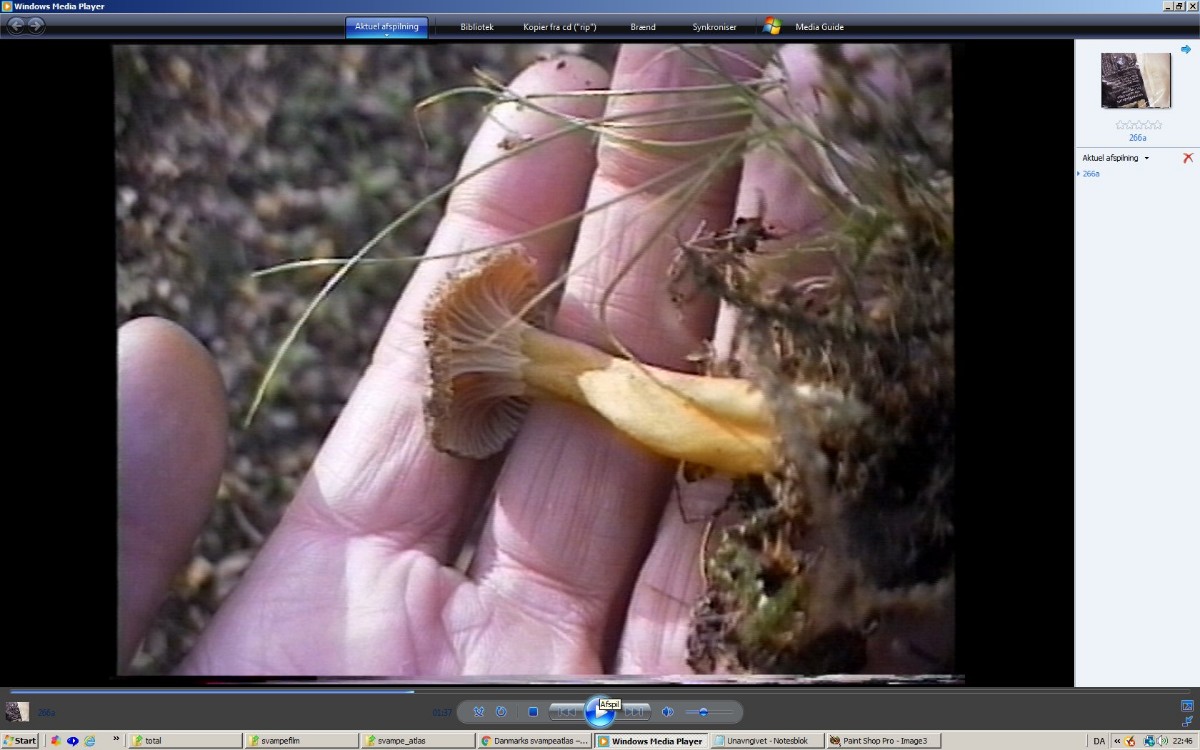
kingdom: Fungi
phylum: Basidiomycota
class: Agaricomycetes
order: Cantharellales
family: Hydnaceae
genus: Craterellus
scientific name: Craterellus tubaeformis
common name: tragt-kantarel
